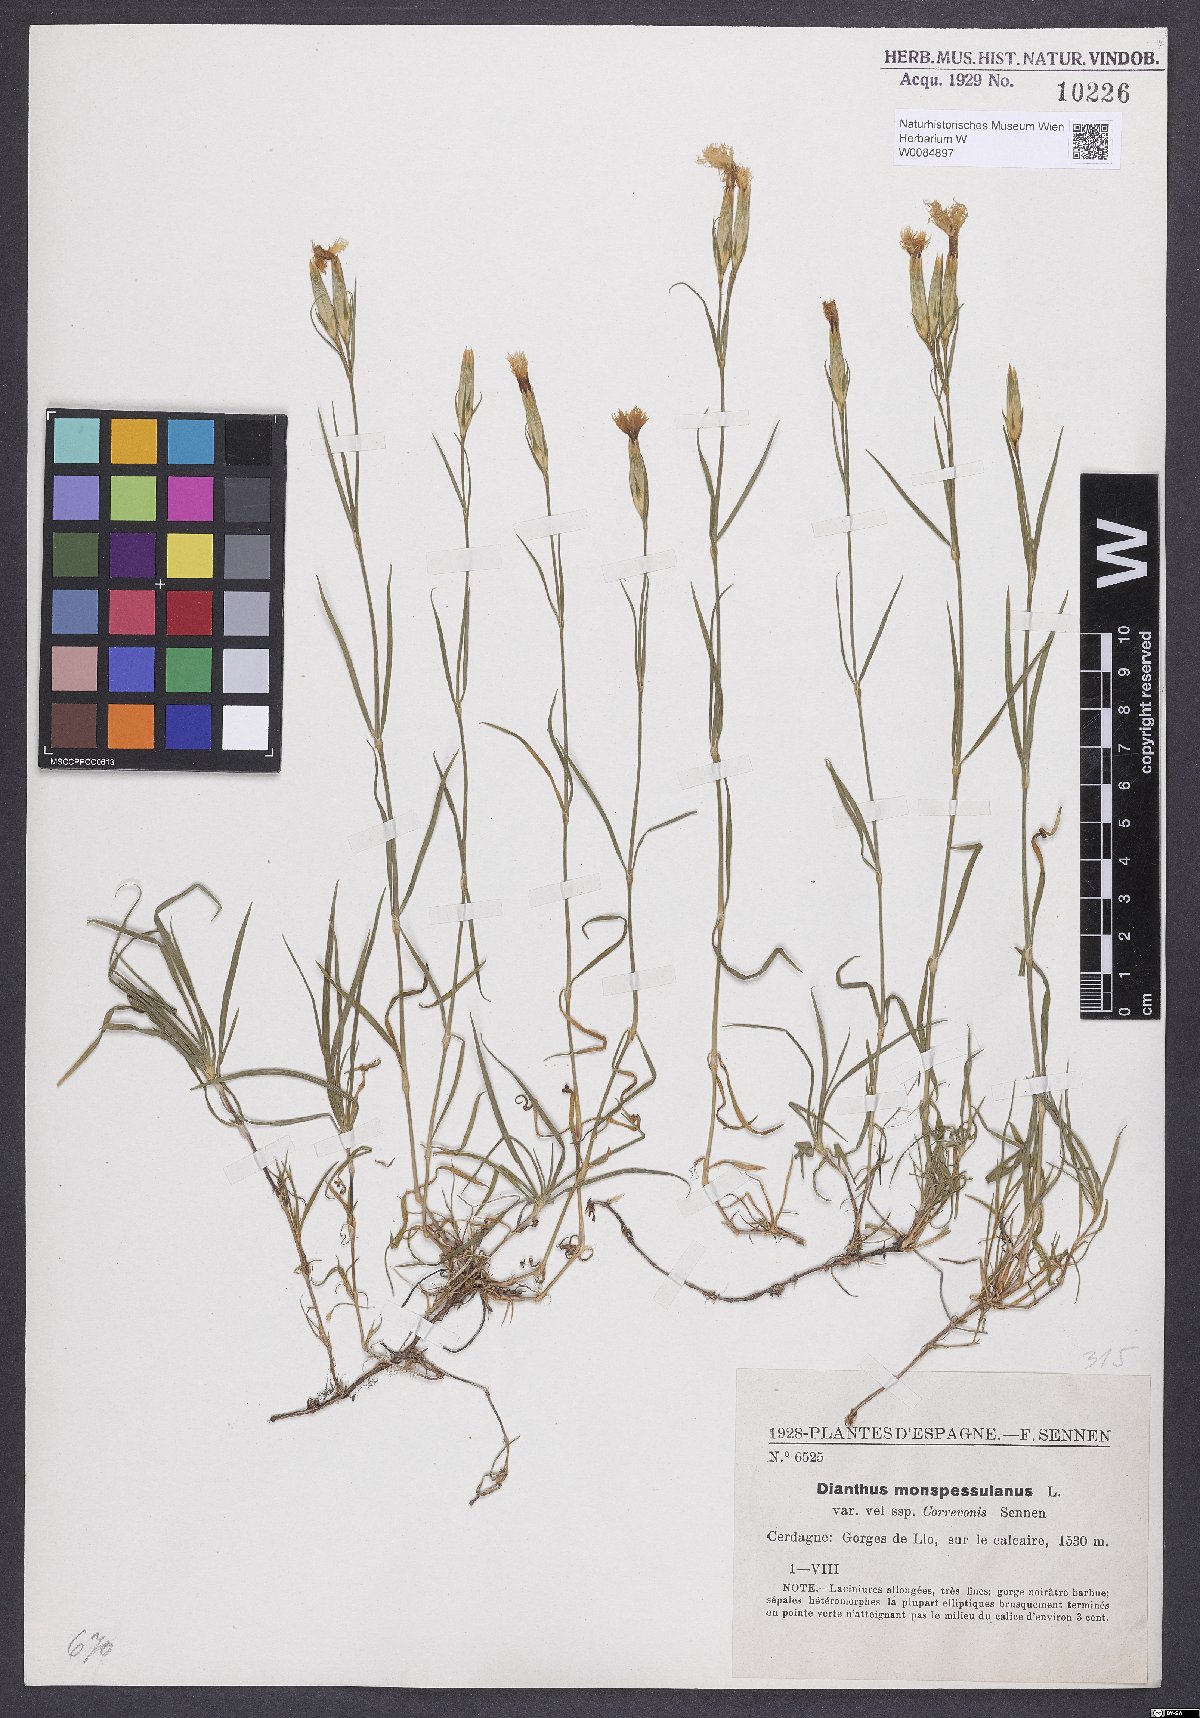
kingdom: Plantae
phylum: Tracheophyta
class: Magnoliopsida
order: Caryophyllales
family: Caryophyllaceae
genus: Dianthus
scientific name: Dianthus hyssopifolius
